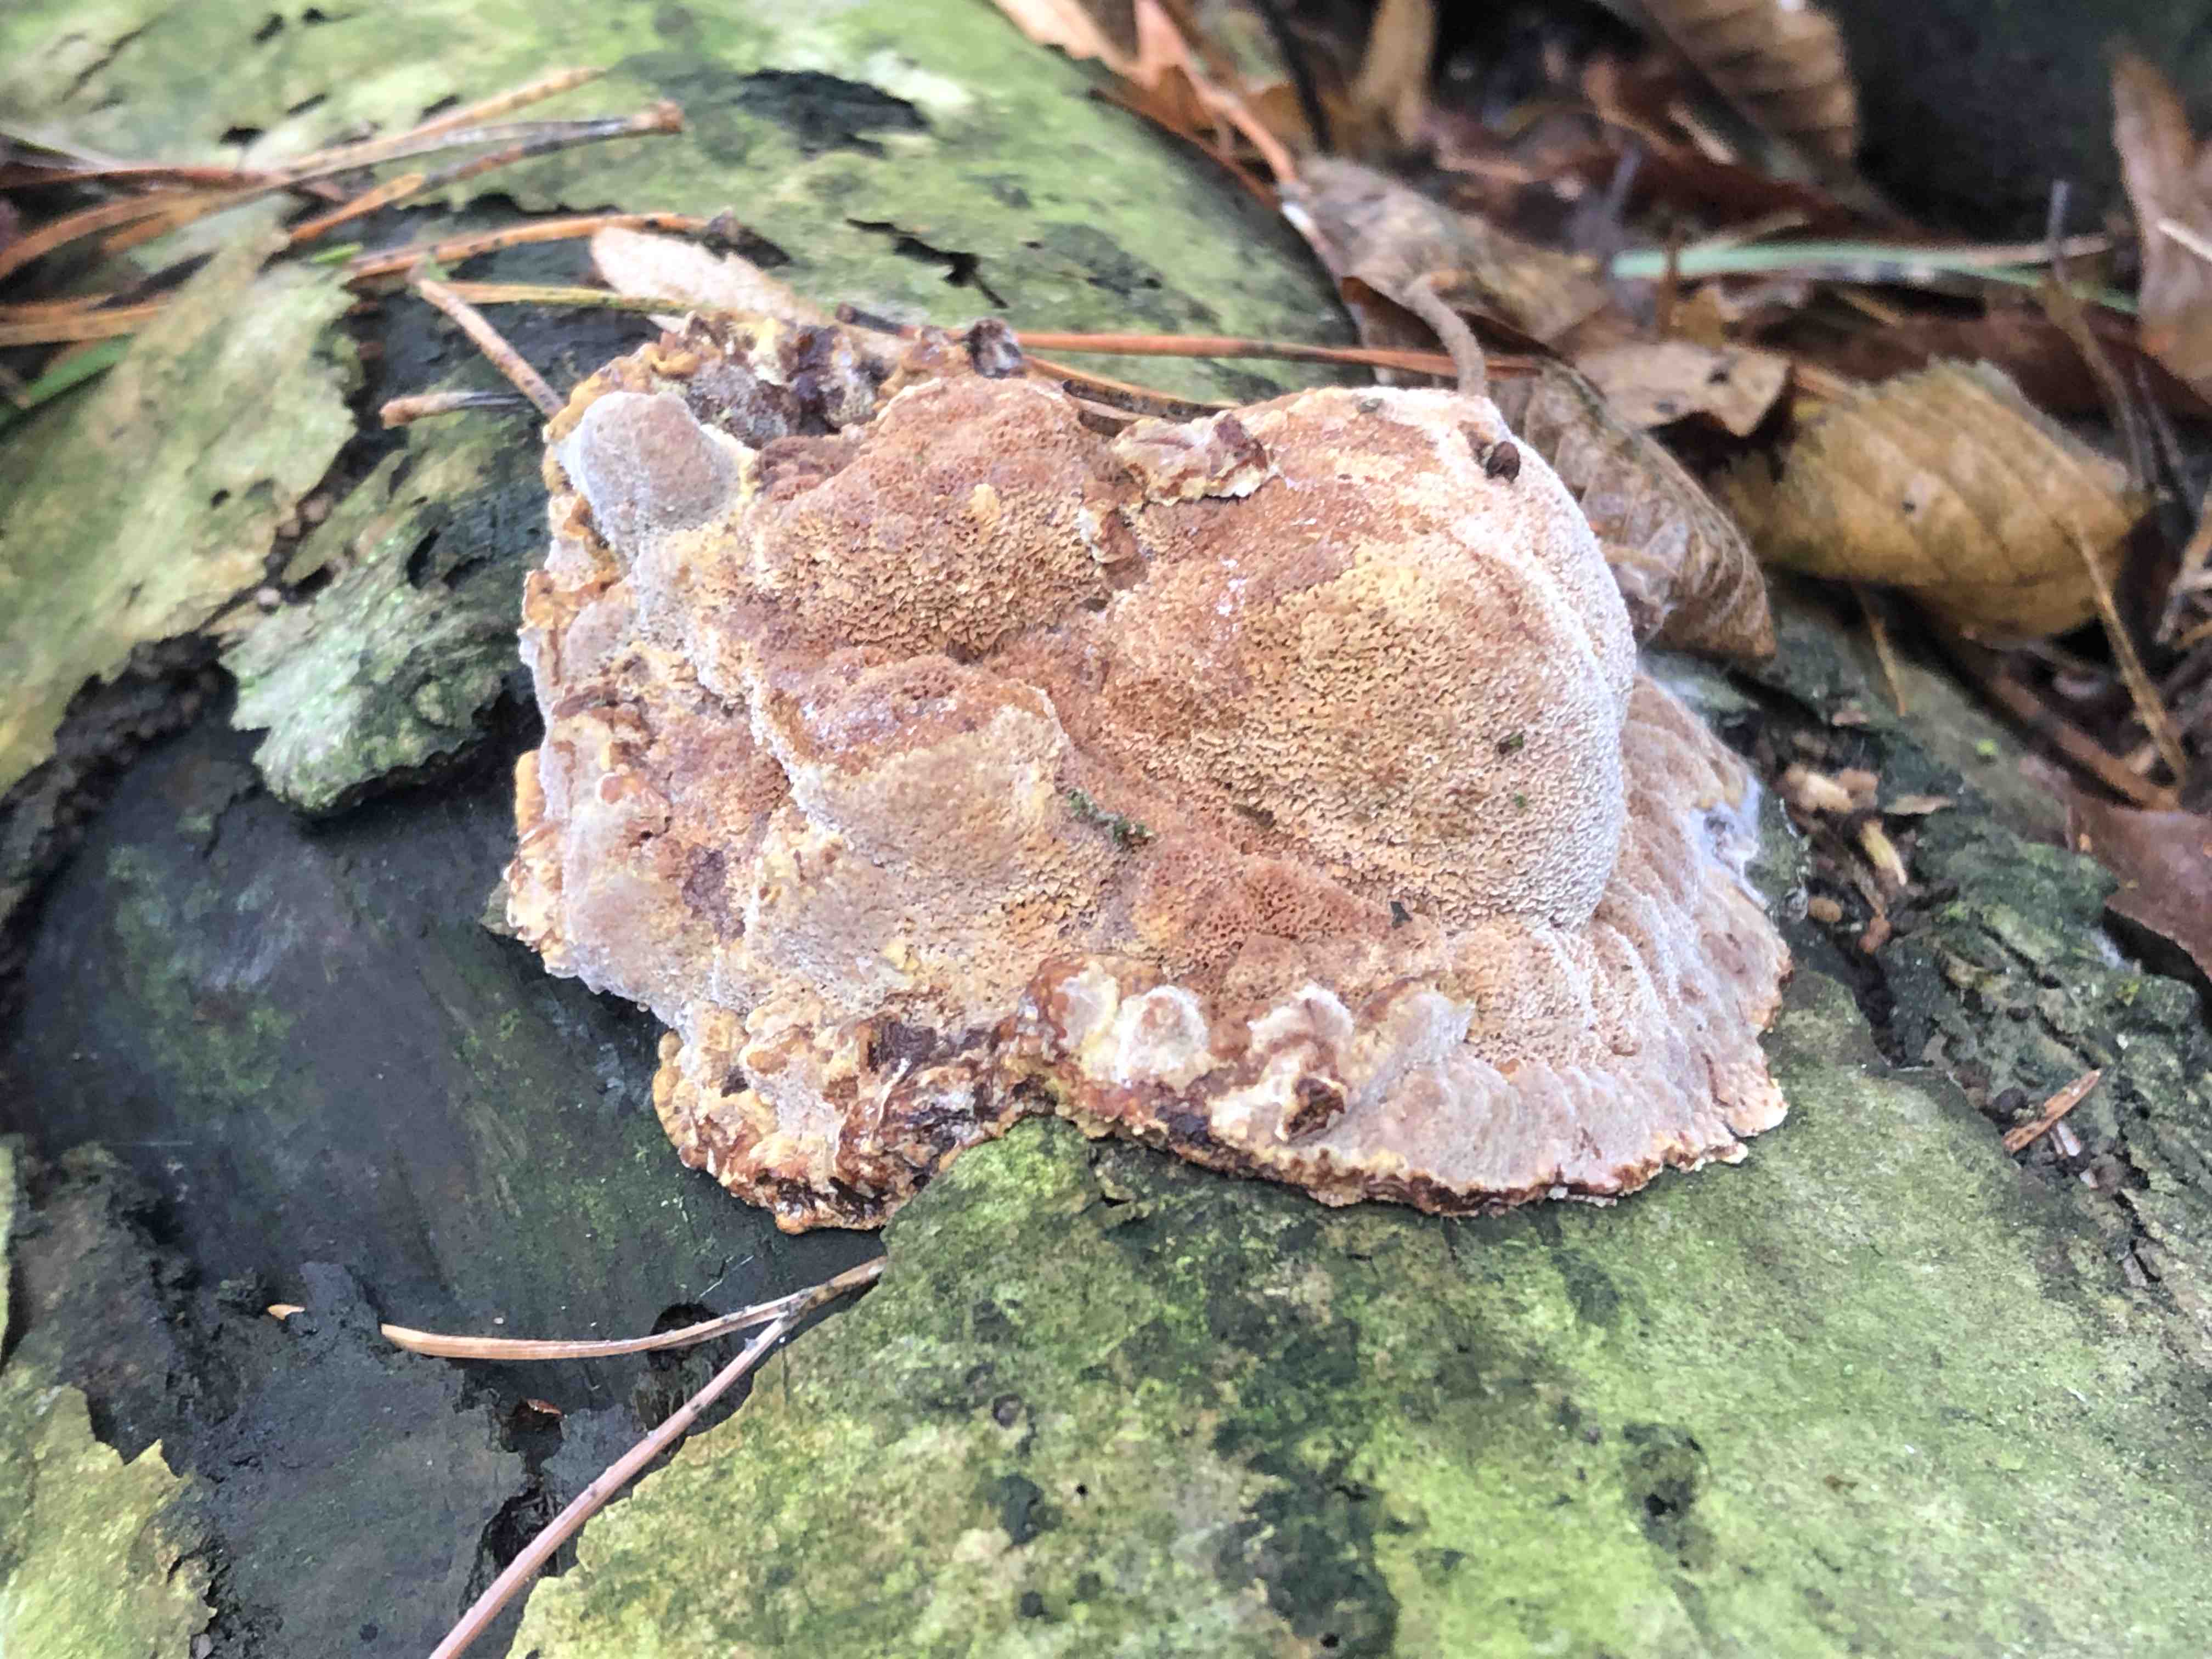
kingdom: Fungi
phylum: Basidiomycota
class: Agaricomycetes
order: Polyporales
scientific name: Polyporales
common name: poresvampordenen
